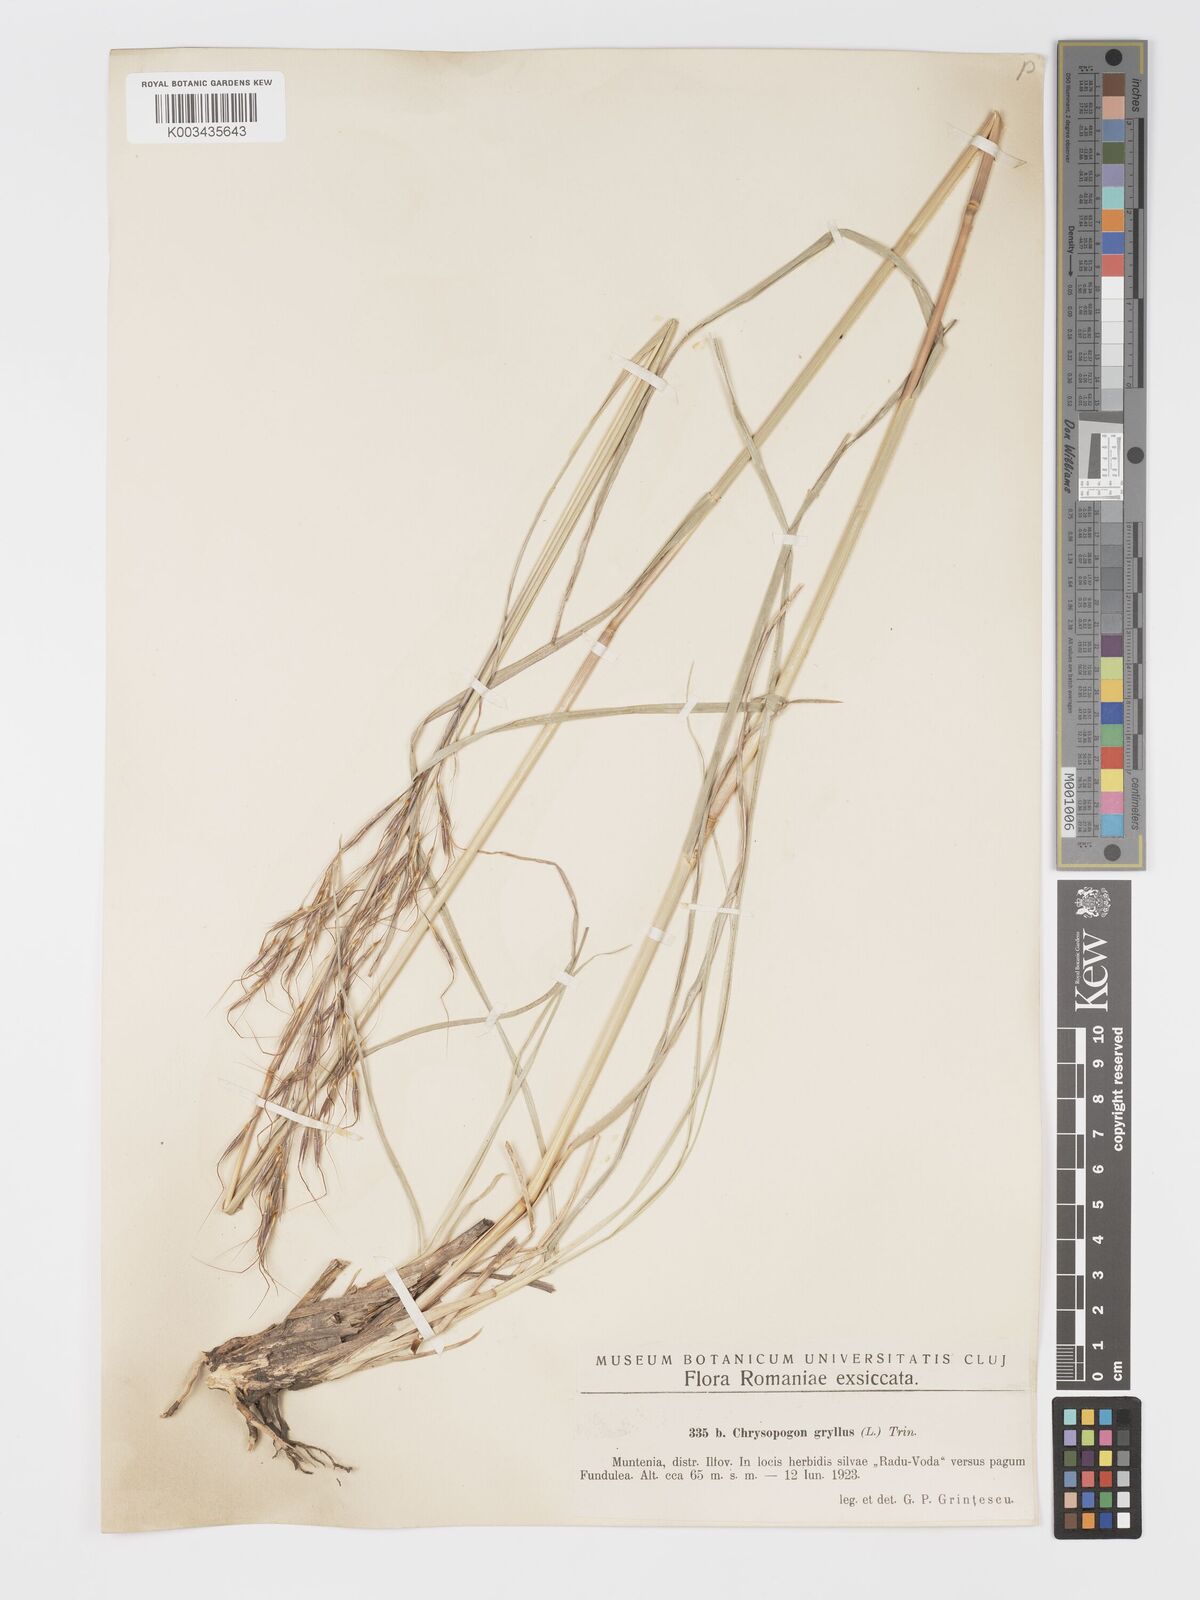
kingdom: Plantae
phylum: Tracheophyta
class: Liliopsida
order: Poales
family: Poaceae
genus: Chrysopogon
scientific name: Chrysopogon gryllus
